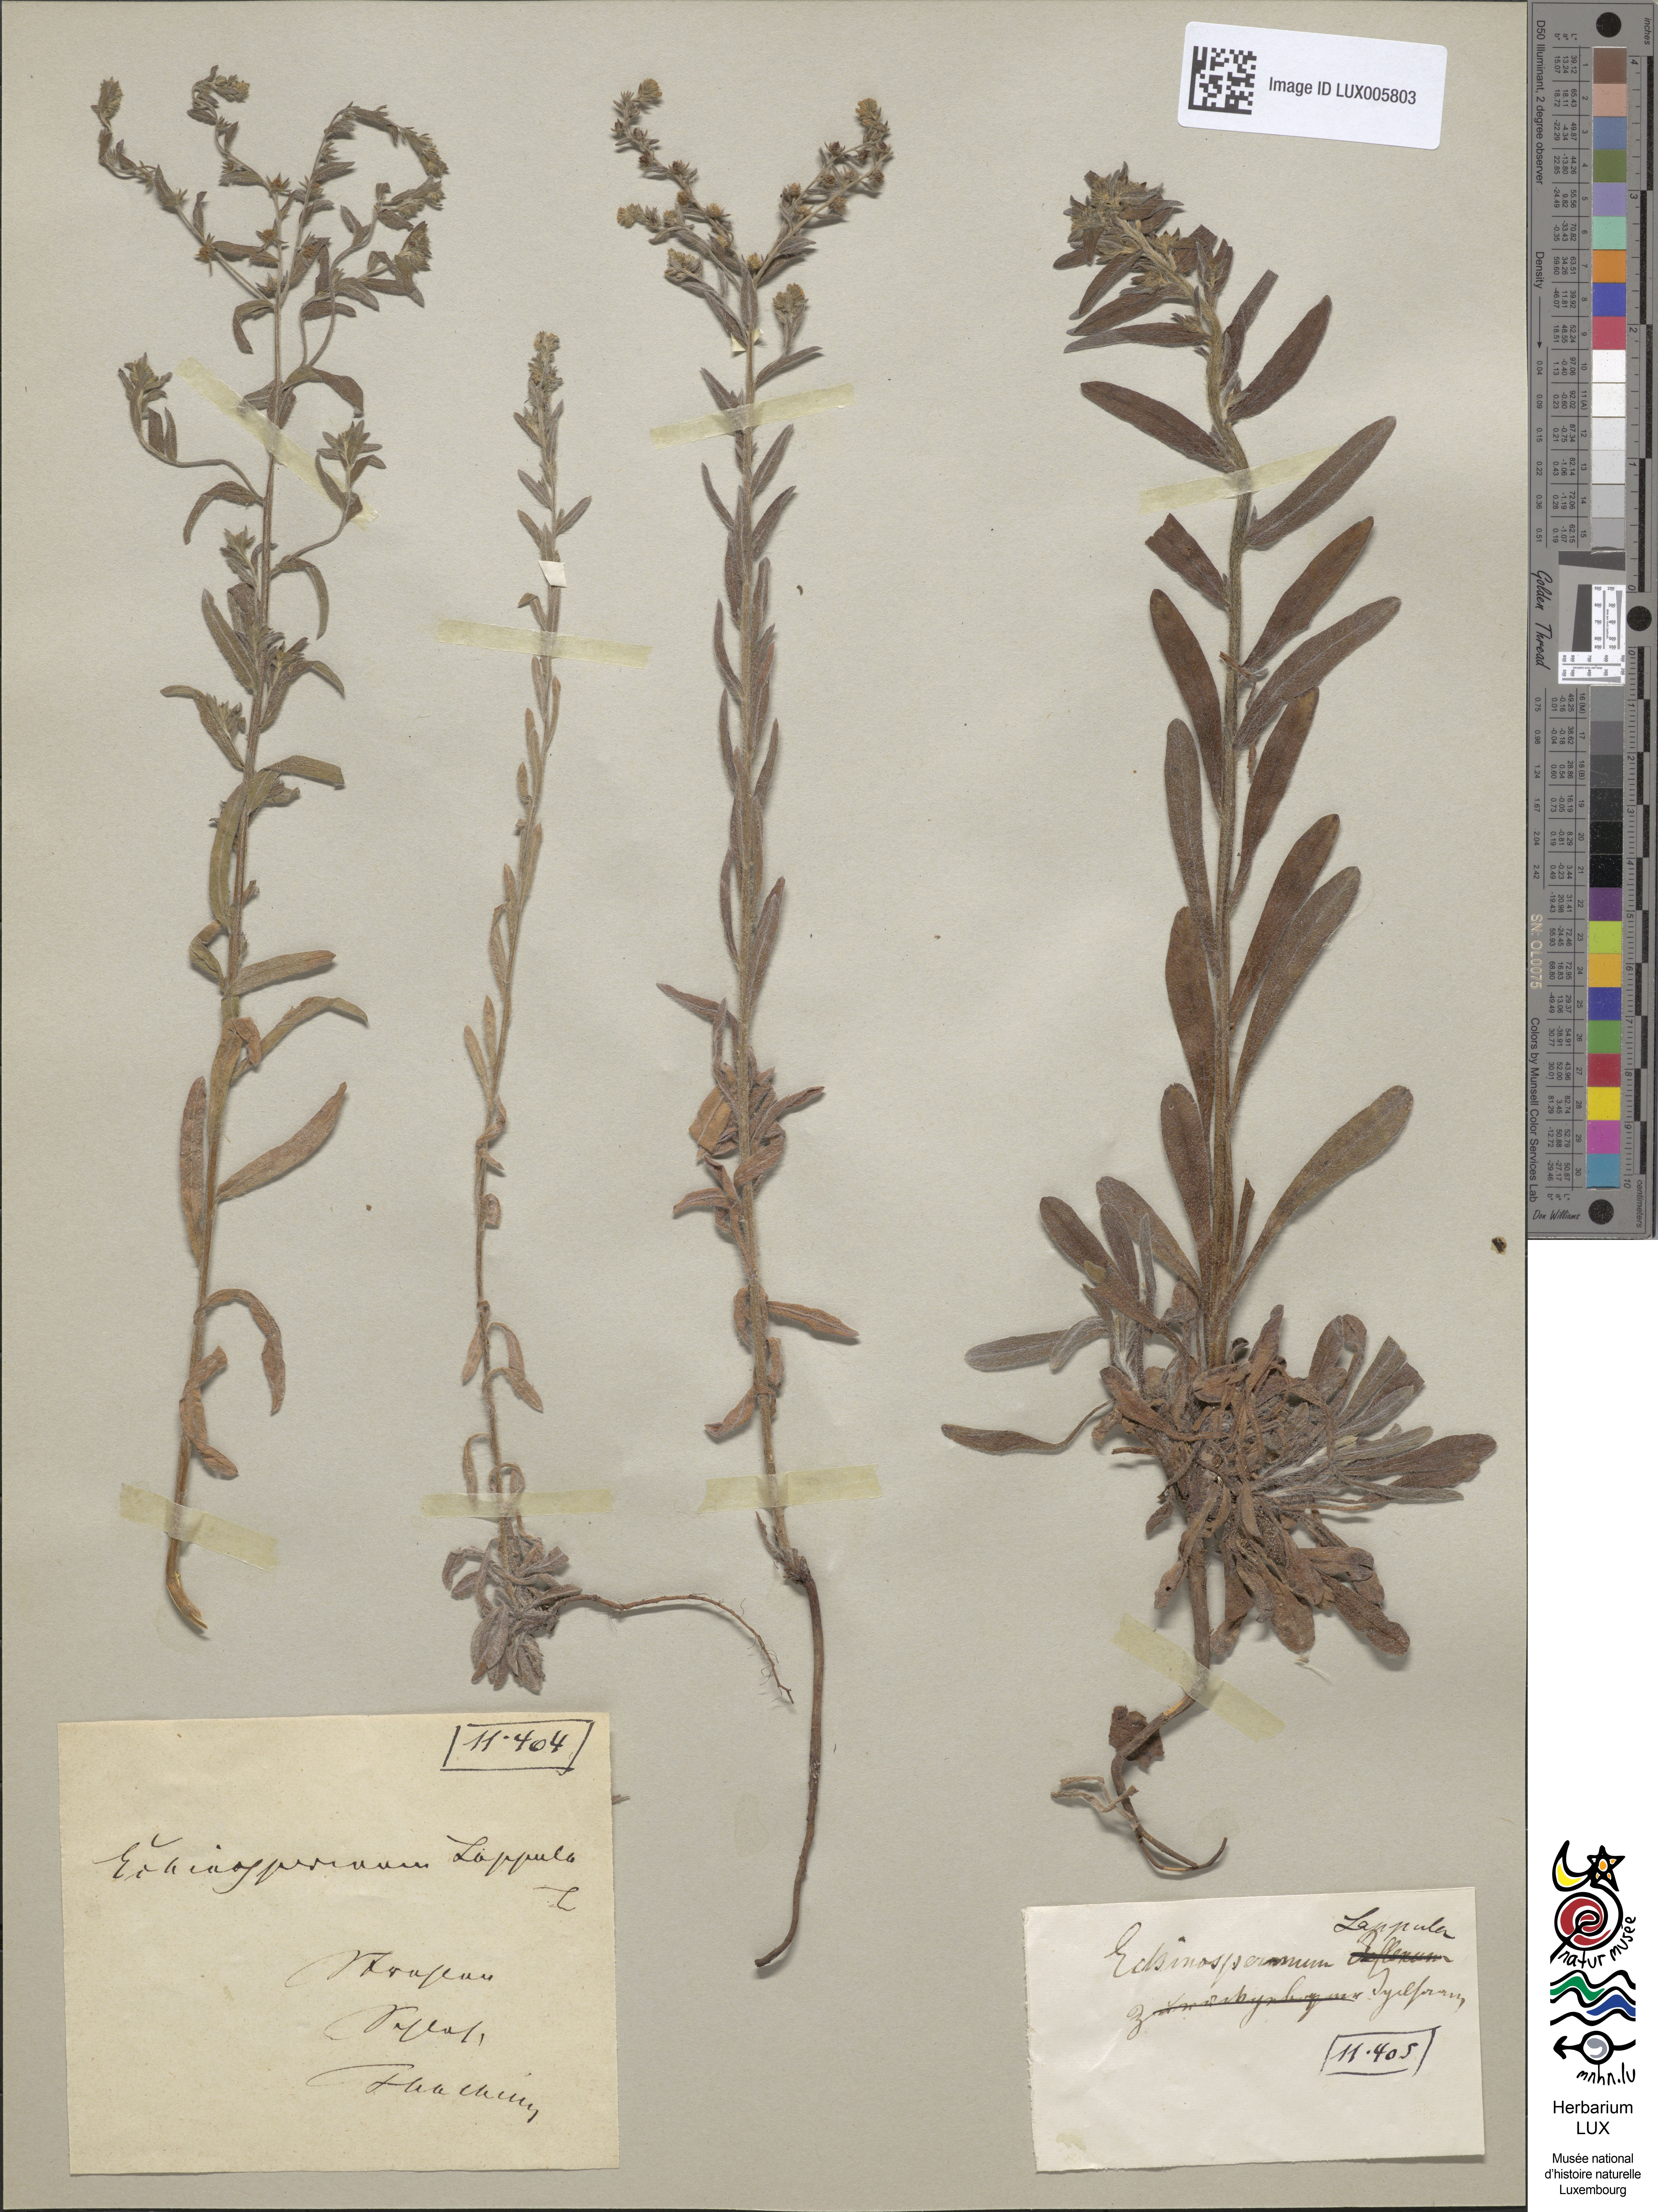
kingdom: Plantae
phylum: Tracheophyta
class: Magnoliopsida
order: Boraginales
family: Boraginaceae
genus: Lappula
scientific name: Lappula squarrosa
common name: European stickseed
